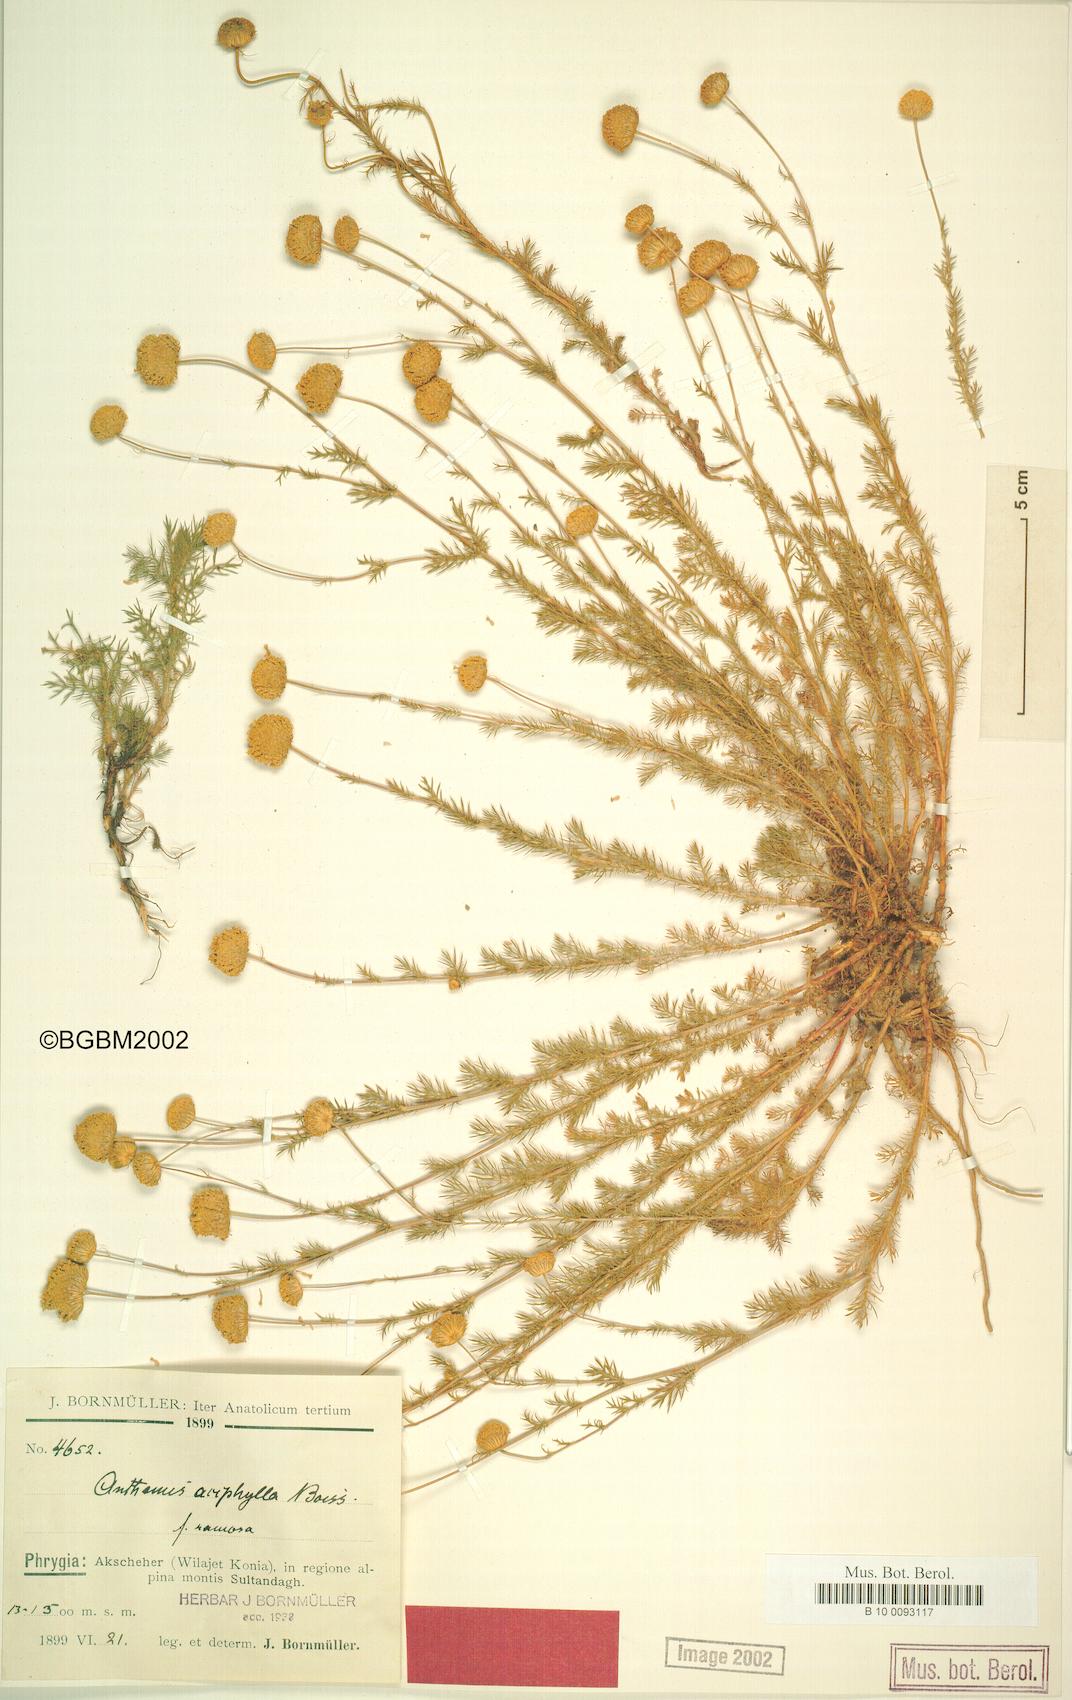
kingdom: Plantae
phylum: Tracheophyta
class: Magnoliopsida
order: Asterales
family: Asteraceae
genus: Anthemis
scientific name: Anthemis aciphylla
